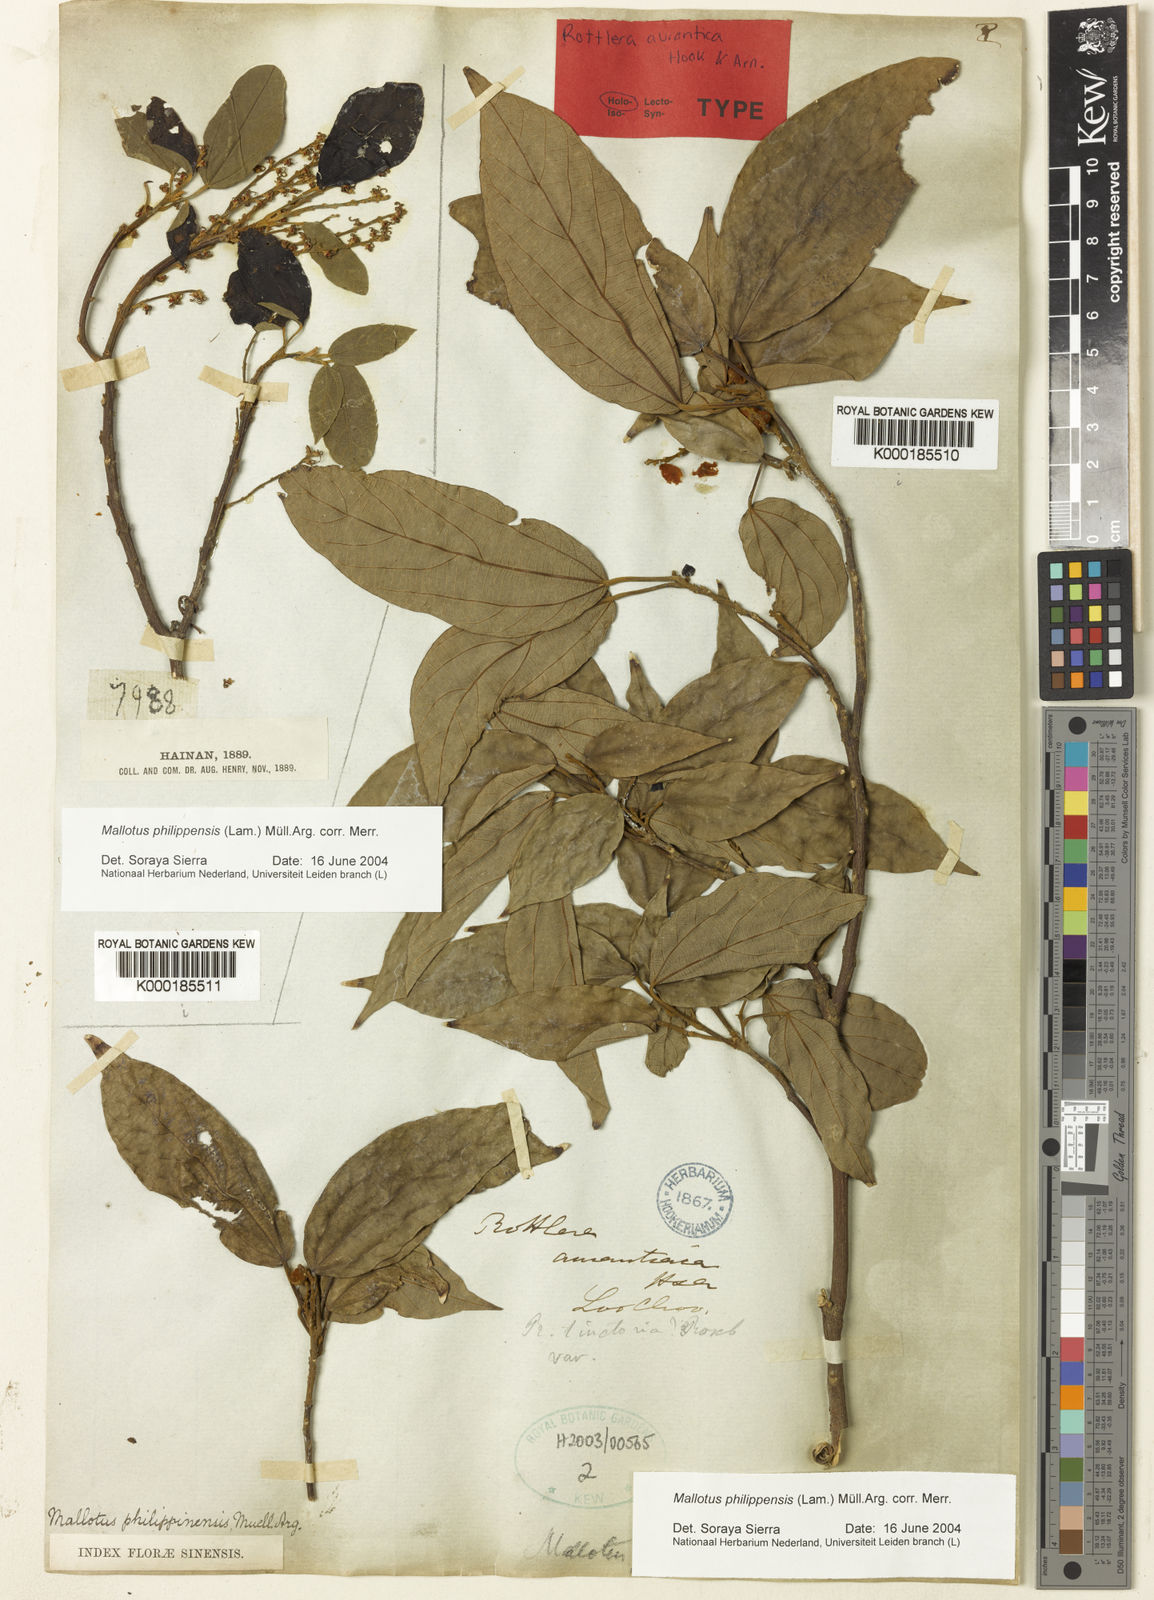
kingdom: Plantae
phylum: Tracheophyta
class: Magnoliopsida
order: Malpighiales
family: Euphorbiaceae
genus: Mallotus
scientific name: Mallotus philippensis
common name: Kamala tree
